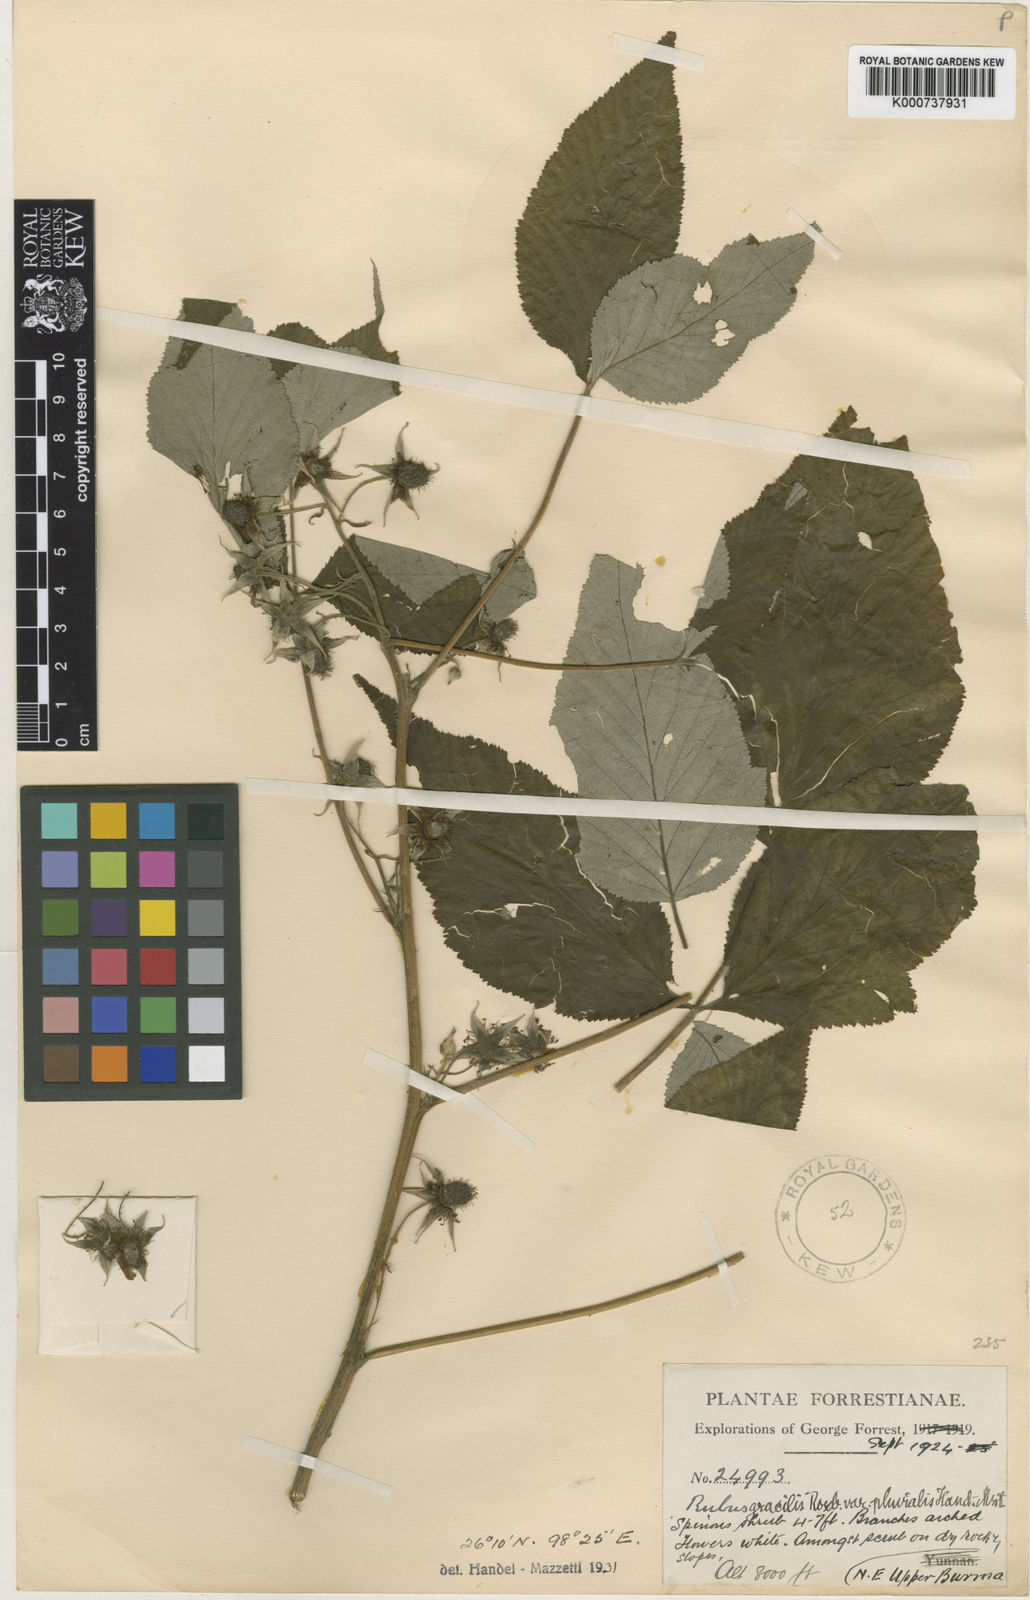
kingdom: Plantae
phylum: Tracheophyta
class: Magnoliopsida
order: Rosales
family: Rosaceae
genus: Rubus
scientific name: Rubus pedunculosus
